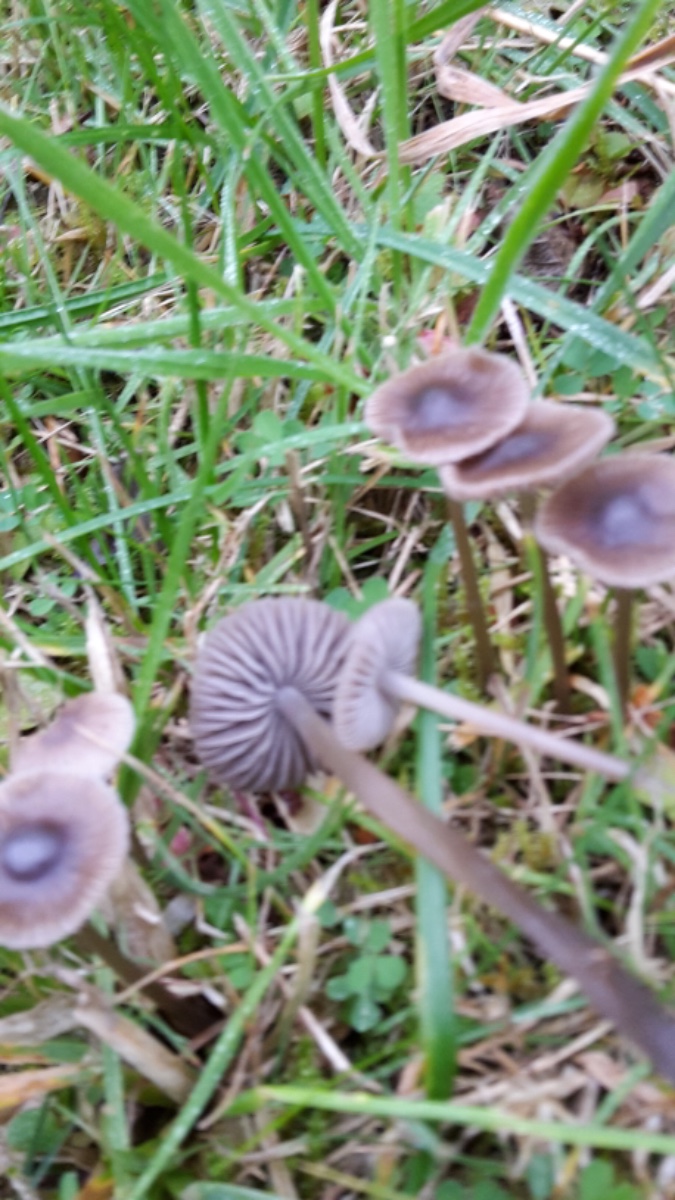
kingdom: Fungi
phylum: Basidiomycota
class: Agaricomycetes
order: Agaricales
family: Mycenaceae
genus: Mycena
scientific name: Mycena aetites
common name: plæne-huesvamp
